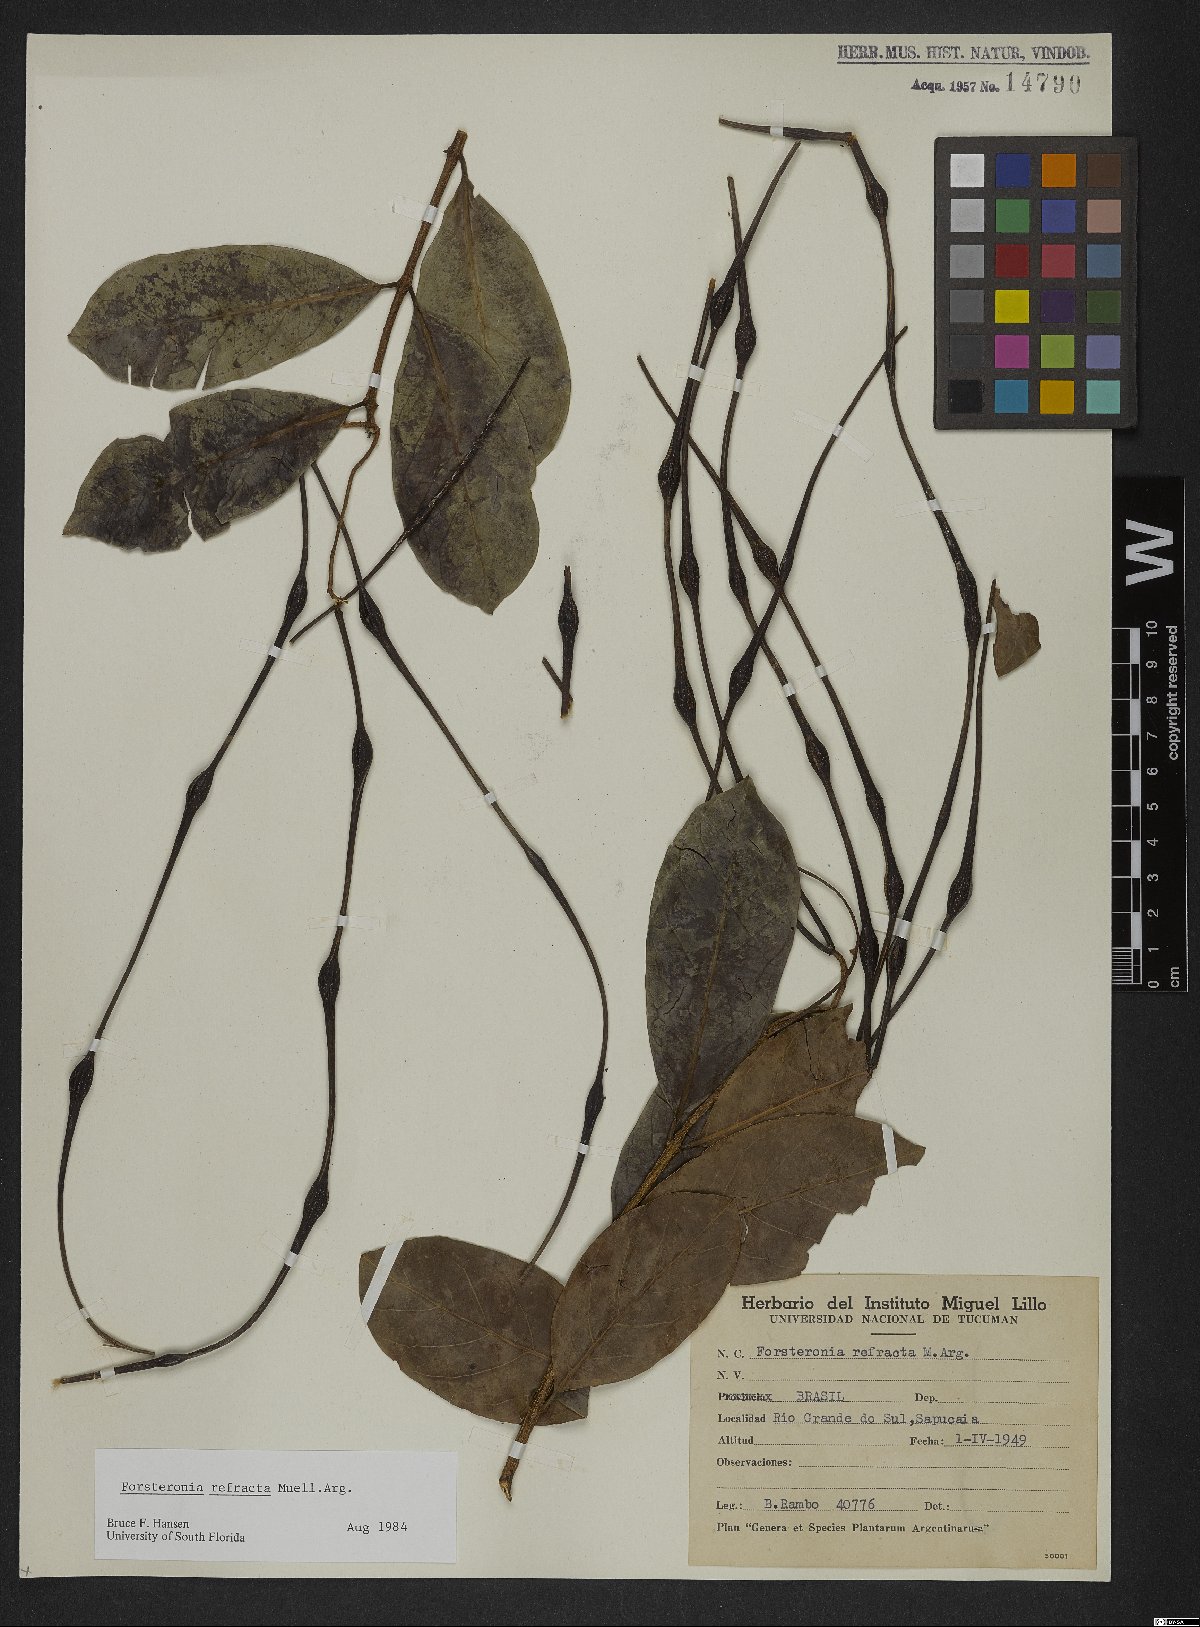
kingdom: Plantae
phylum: Tracheophyta
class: Magnoliopsida
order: Gentianales
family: Apocynaceae
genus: Forsteronia
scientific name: Forsteronia refracta
